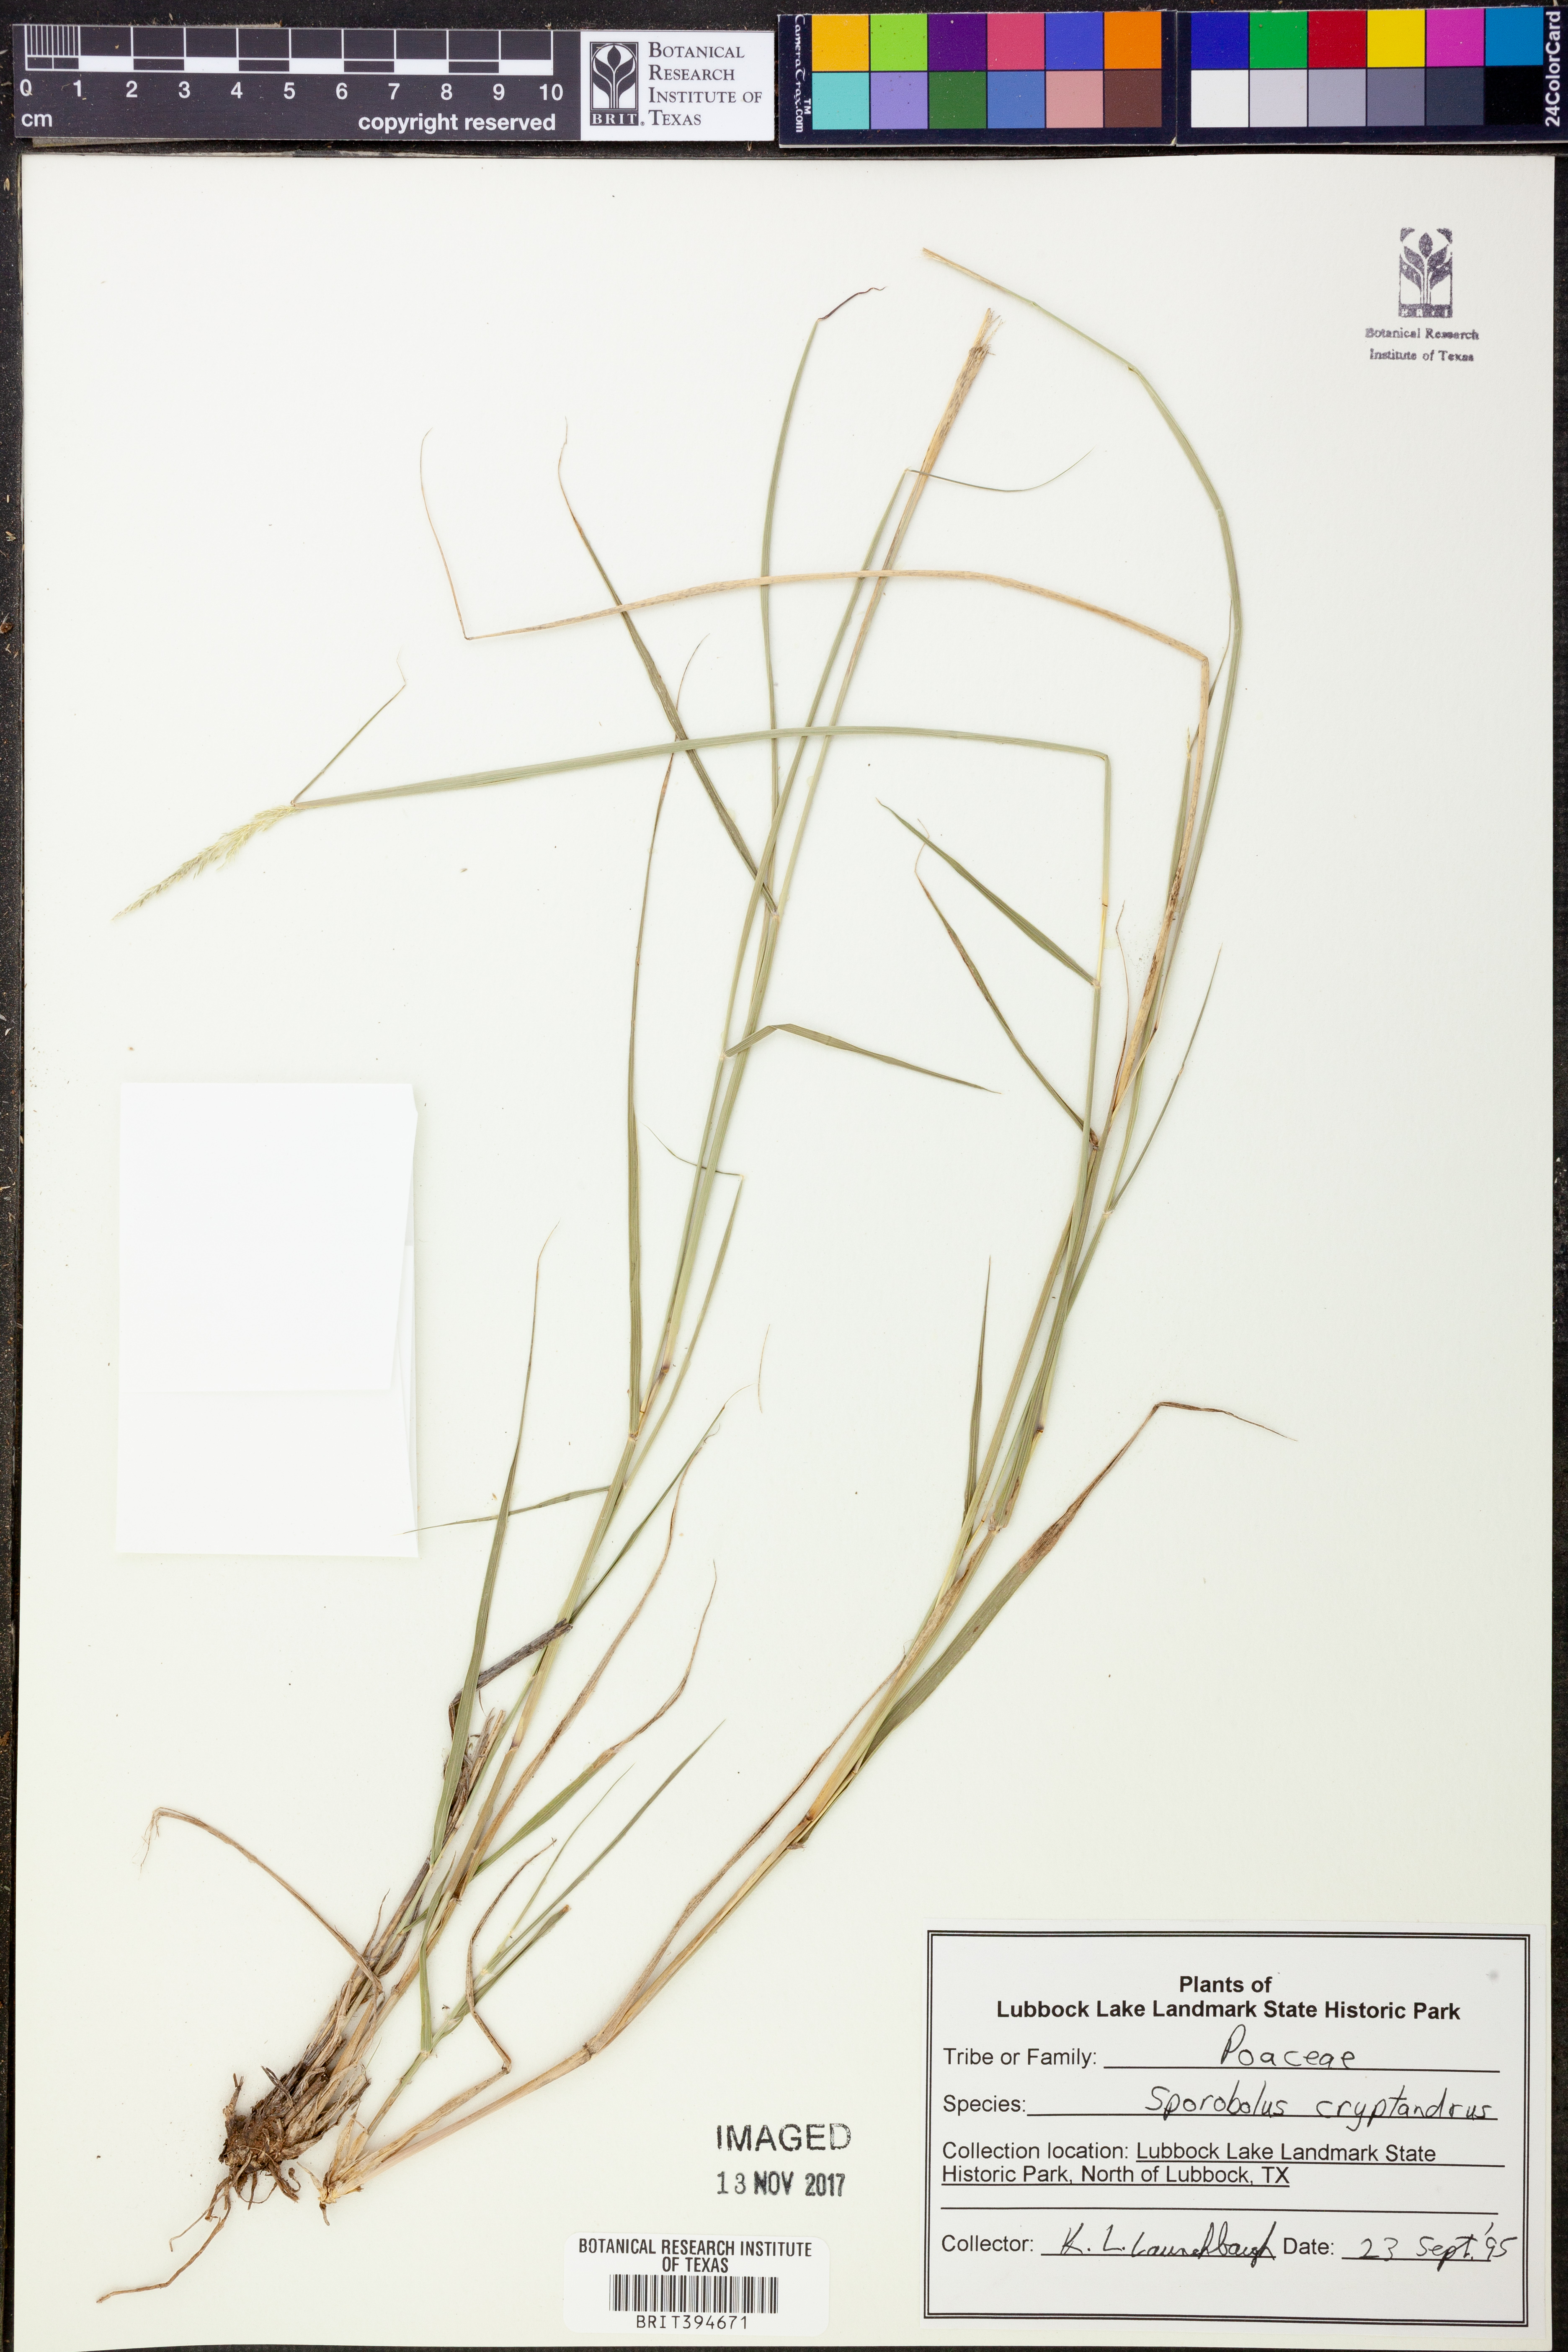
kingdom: Plantae
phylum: Tracheophyta
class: Liliopsida
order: Poales
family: Poaceae
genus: Sporobolus
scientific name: Sporobolus cryptandrus
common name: Sand dropseed
